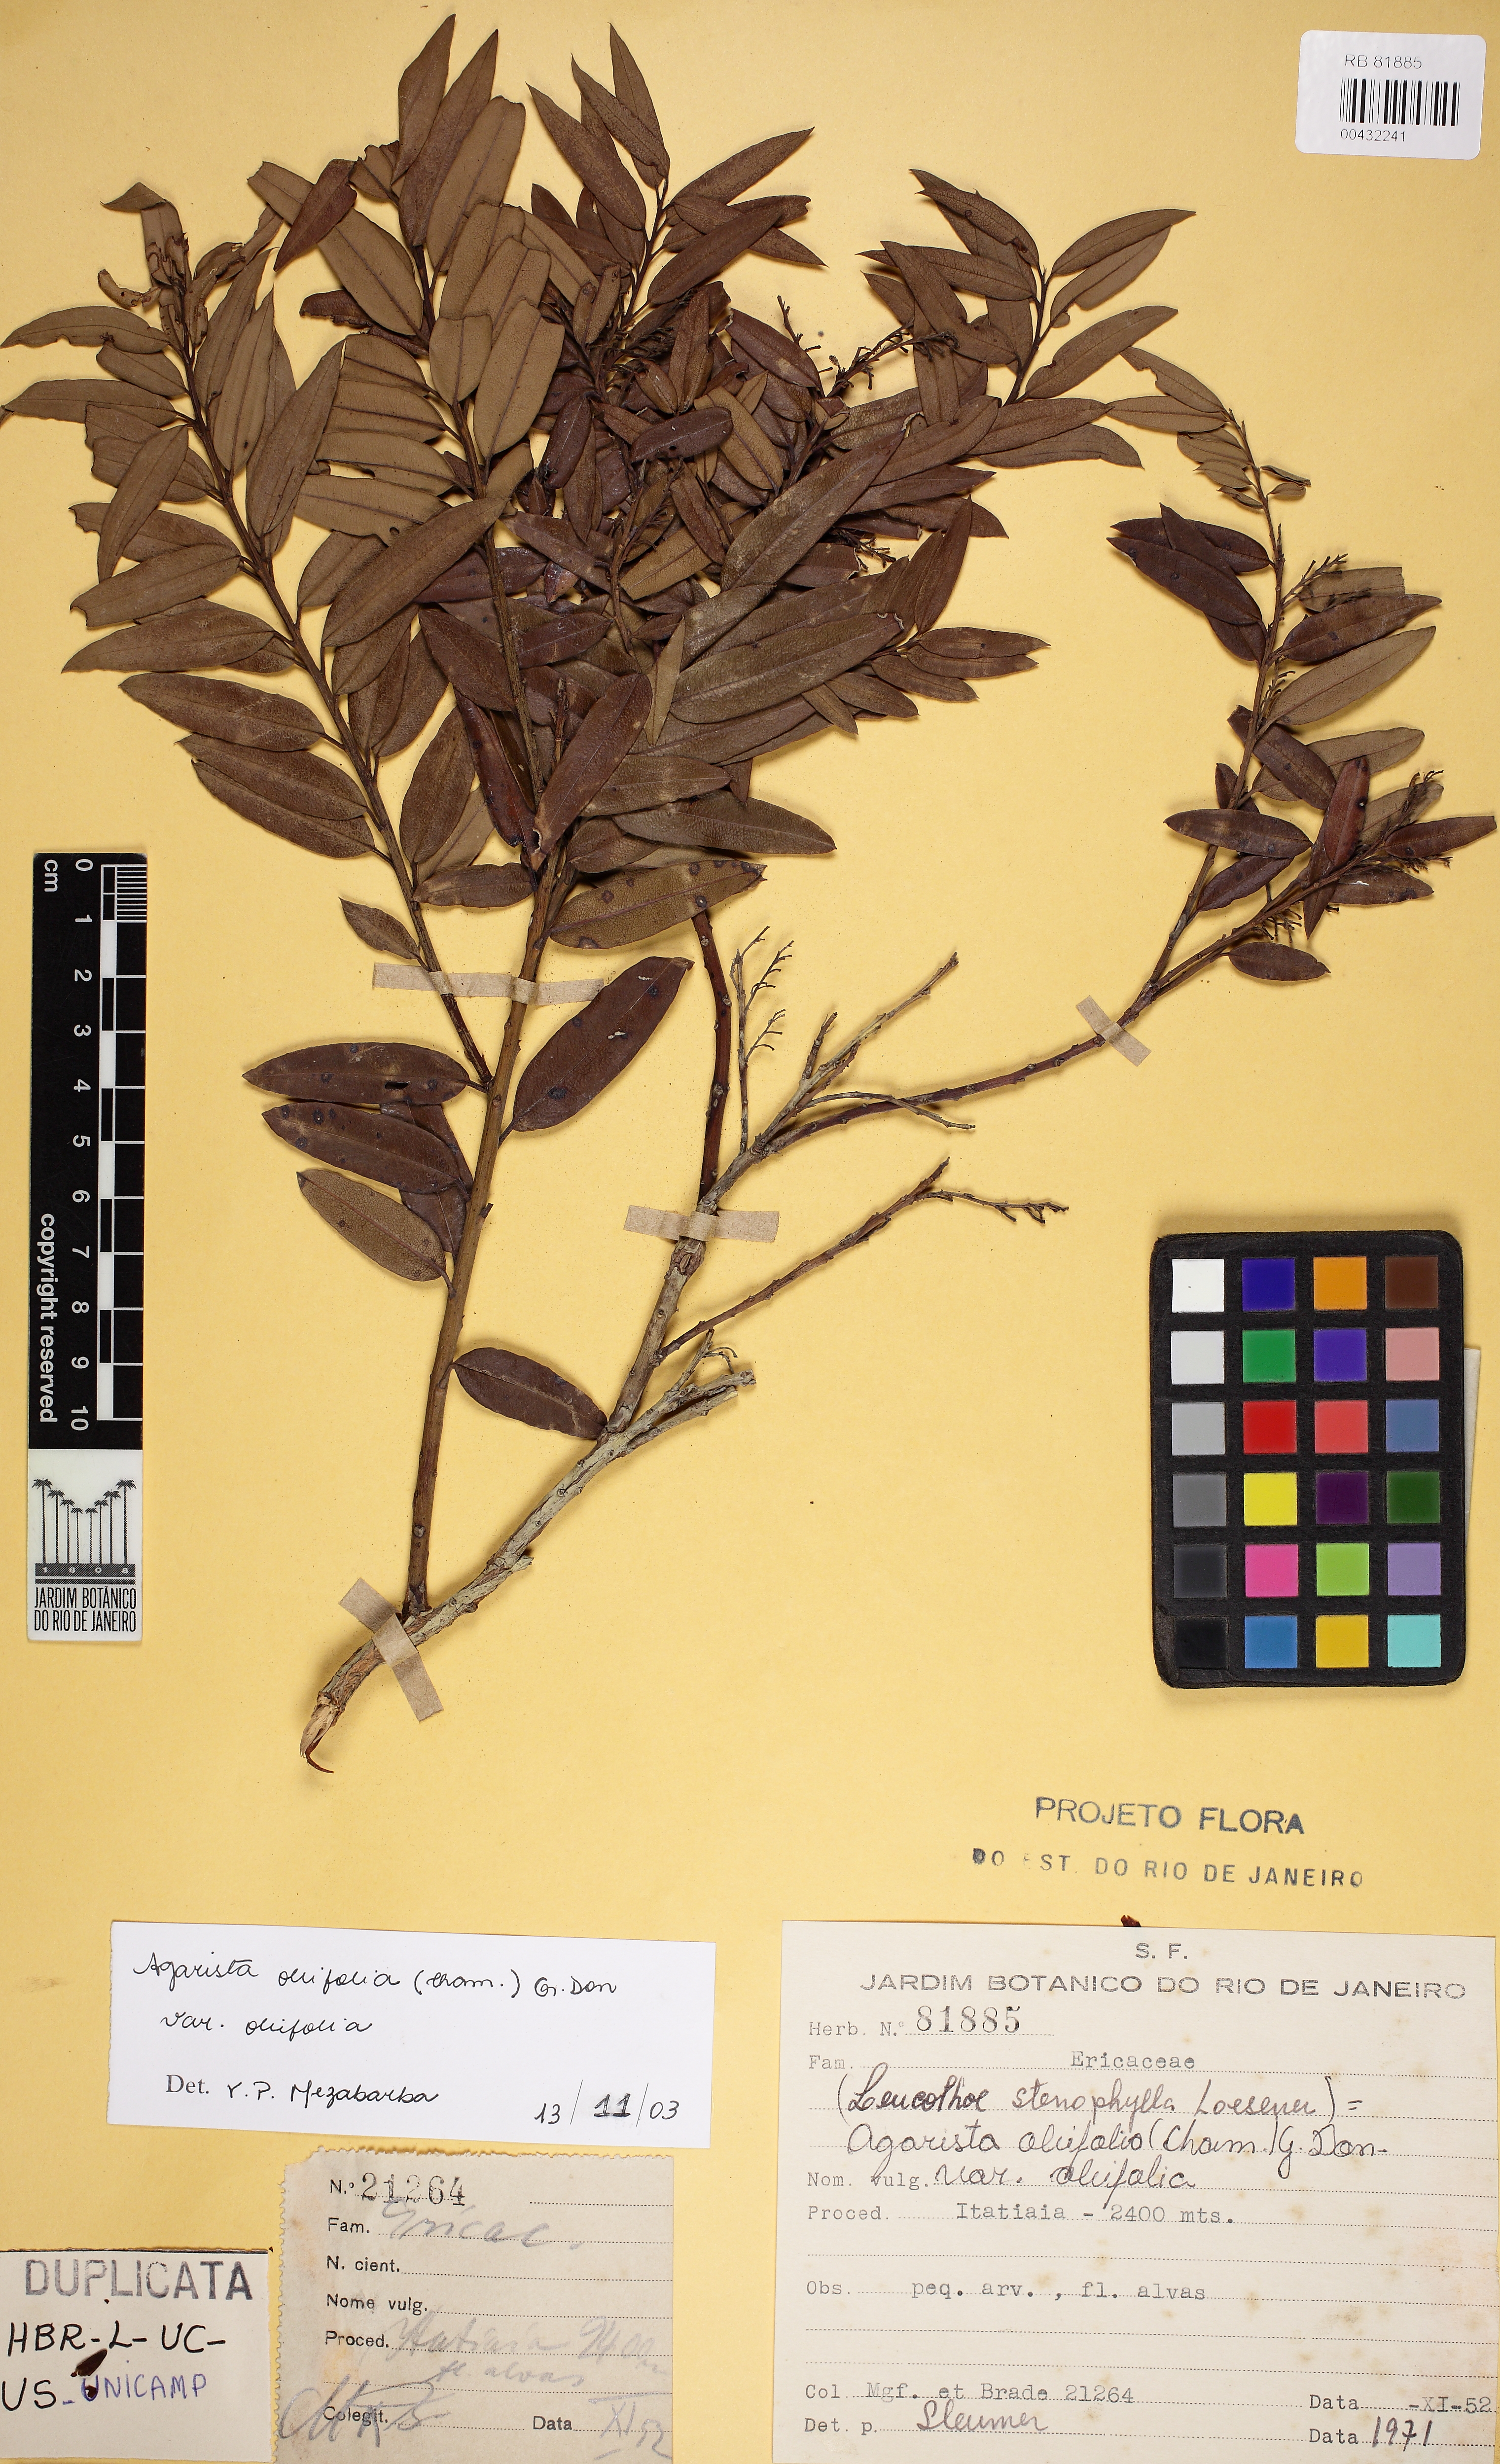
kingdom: Plantae
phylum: Tracheophyta
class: Magnoliopsida
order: Ericales
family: Ericaceae
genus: Agarista
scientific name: Agarista oleifolia
